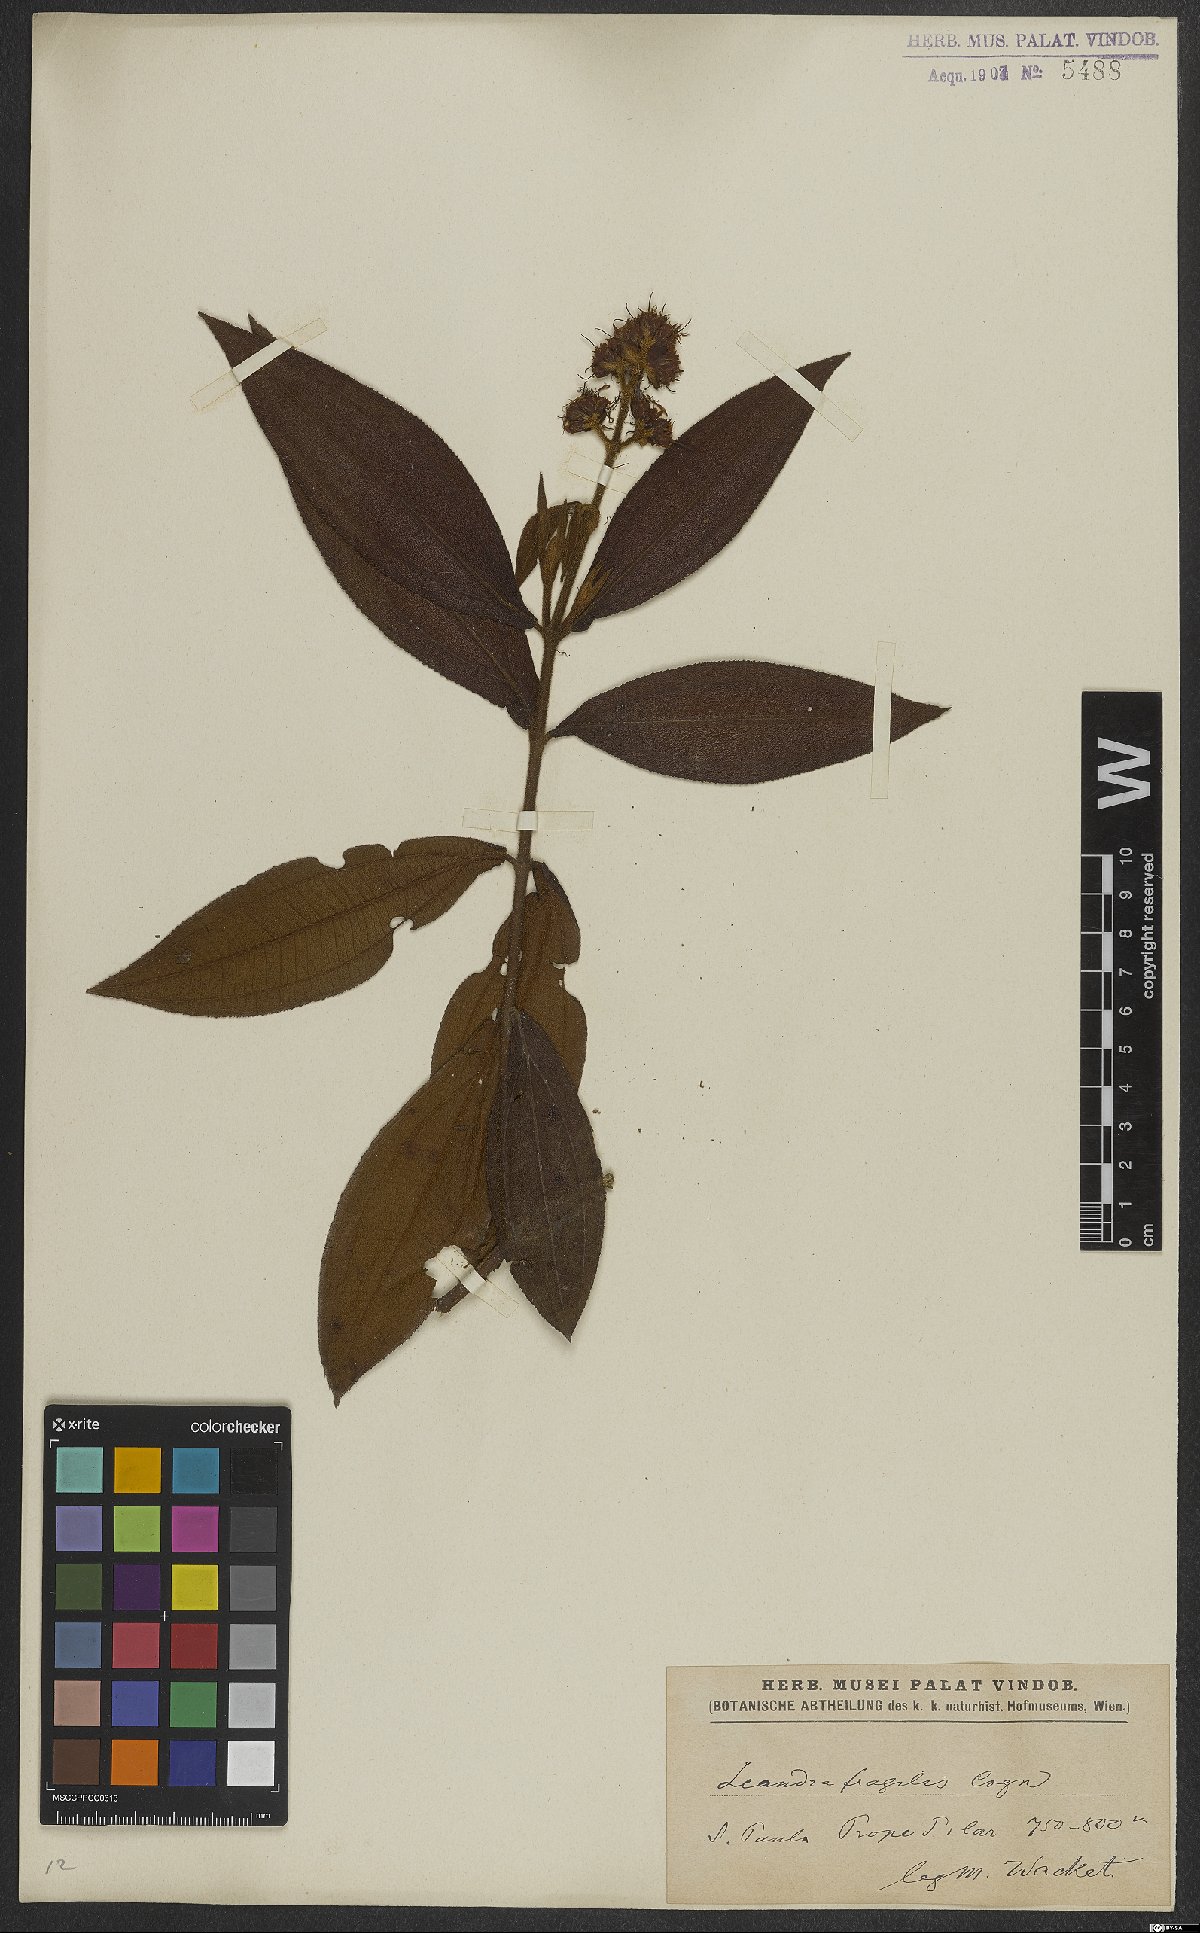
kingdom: Plantae
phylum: Tracheophyta
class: Magnoliopsida
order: Myrtales
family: Melastomataceae
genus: Miconia
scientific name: Miconia melastomoides
